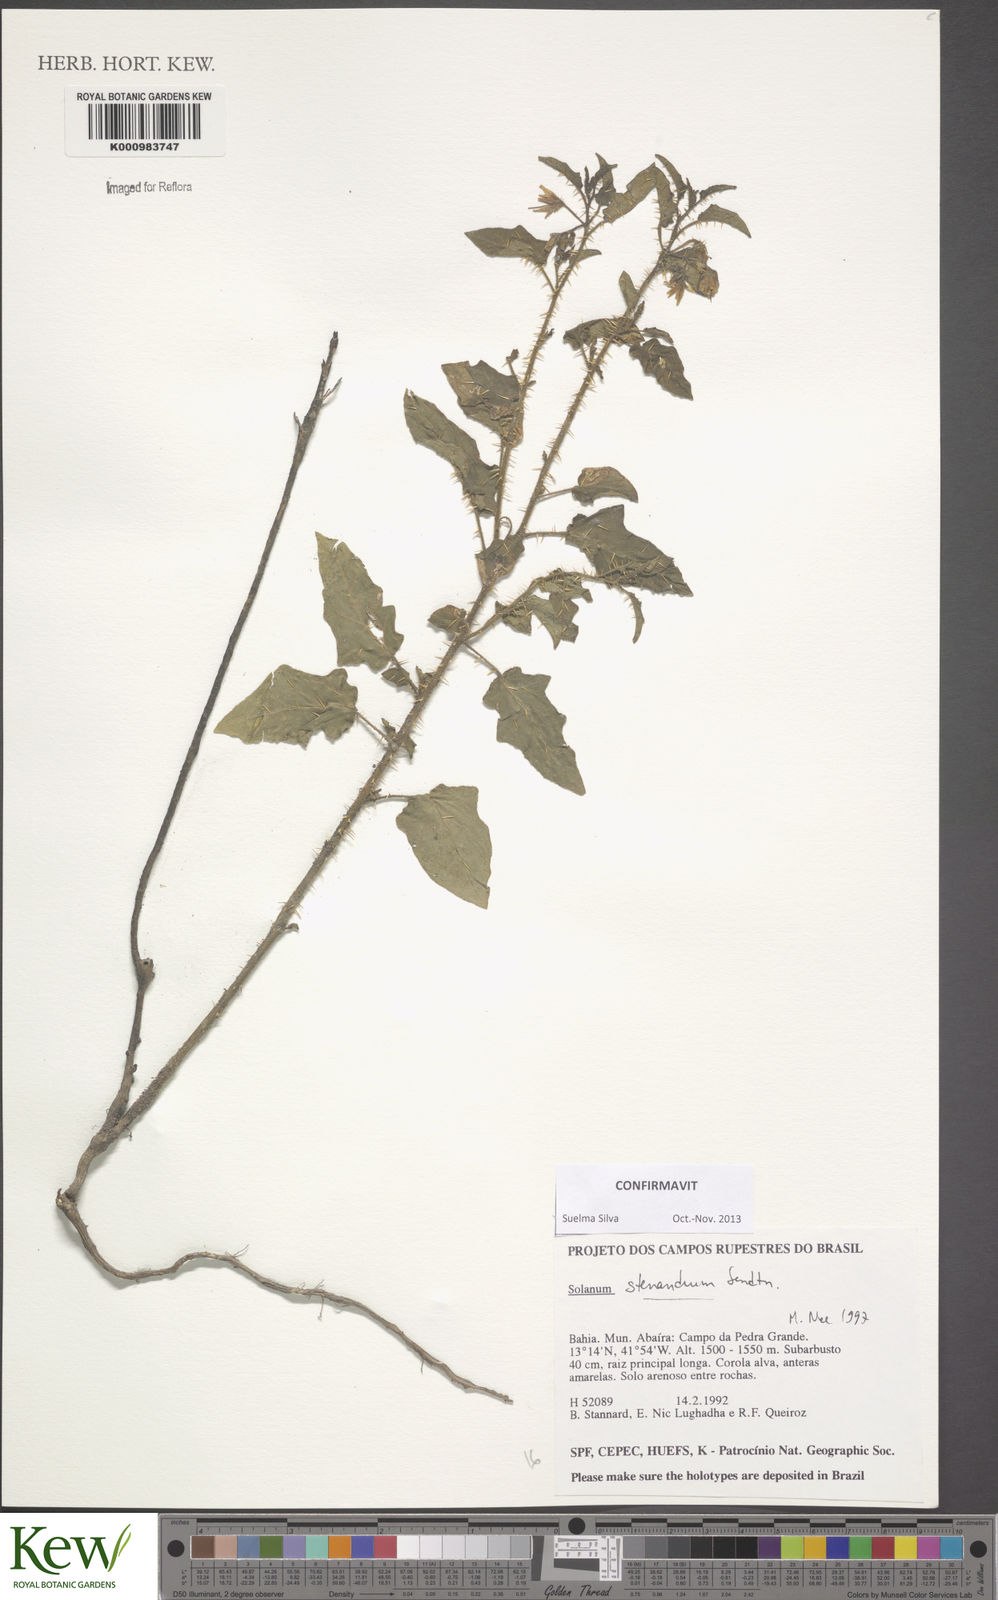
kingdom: Plantae
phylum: Tracheophyta
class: Magnoliopsida
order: Solanales
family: Solanaceae
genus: Solanum
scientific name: Solanum stenandrum
